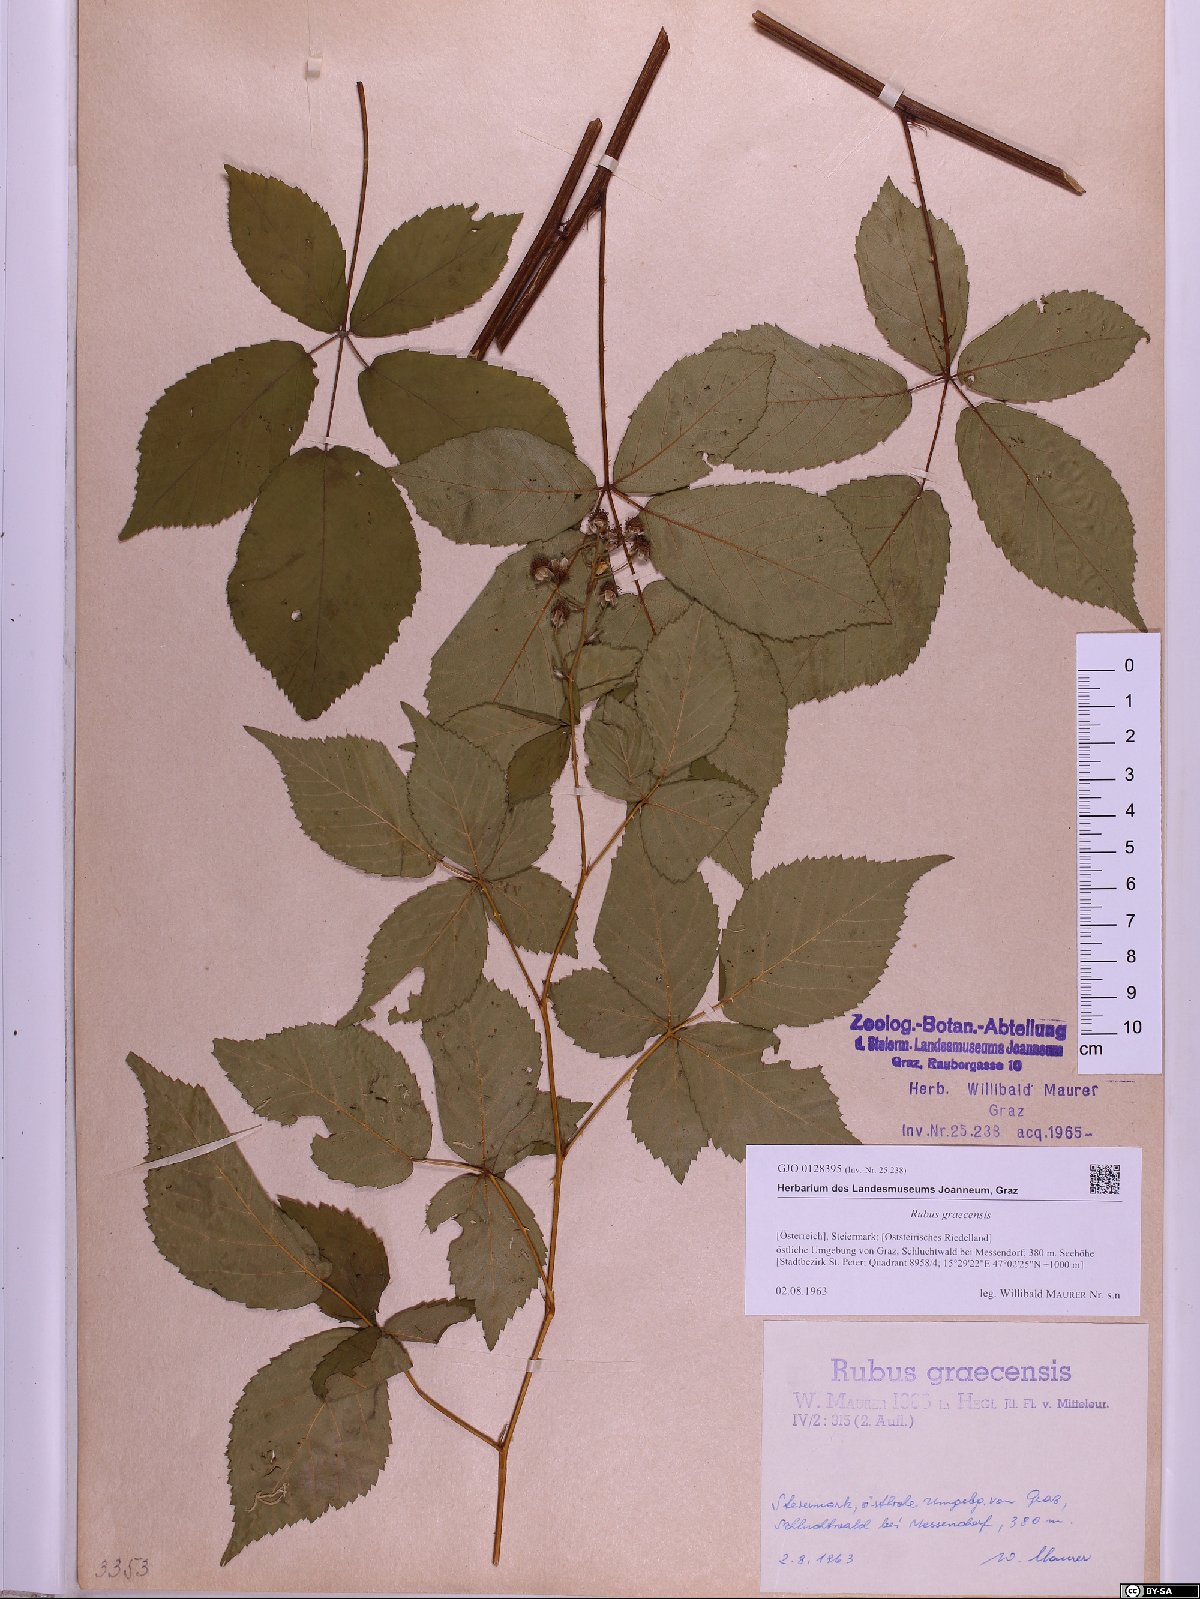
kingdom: Plantae
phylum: Tracheophyta
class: Magnoliopsida
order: Rosales
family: Rosaceae
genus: Rubus
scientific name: Rubus graecensis
